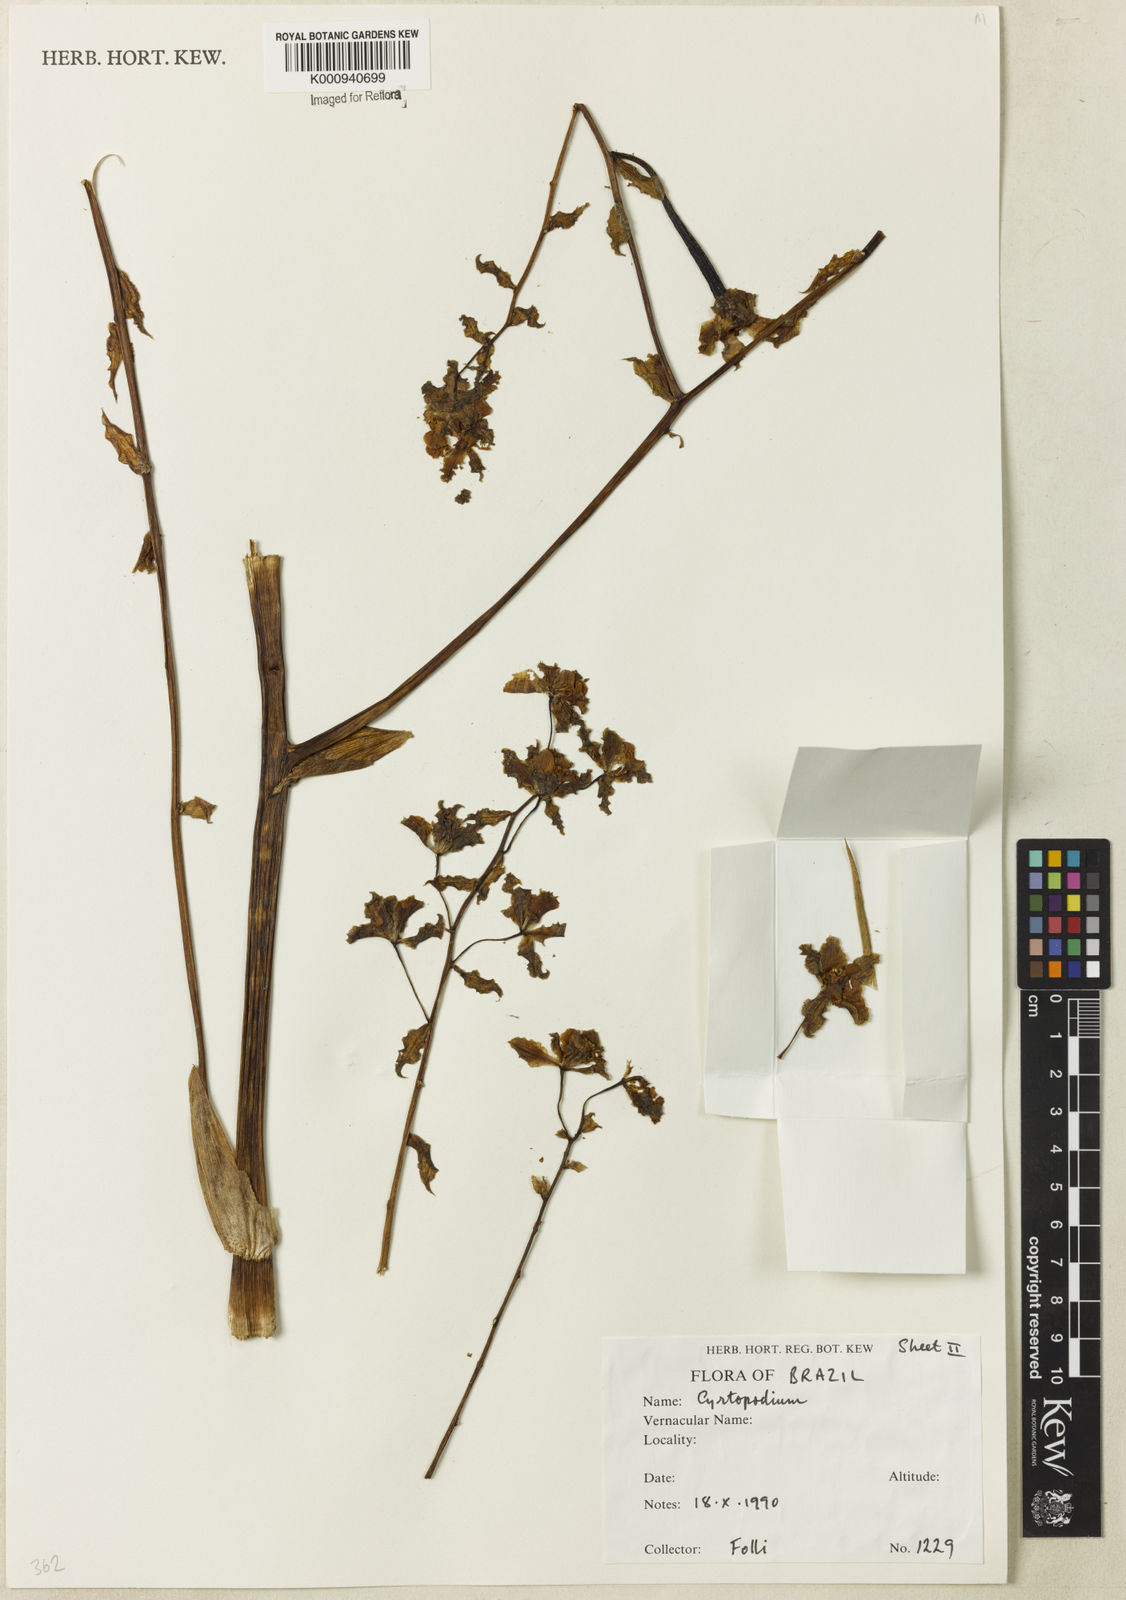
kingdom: Plantae
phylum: Tracheophyta
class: Liliopsida
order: Asparagales
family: Orchidaceae
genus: Cyrtopodium
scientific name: Cyrtopodium
